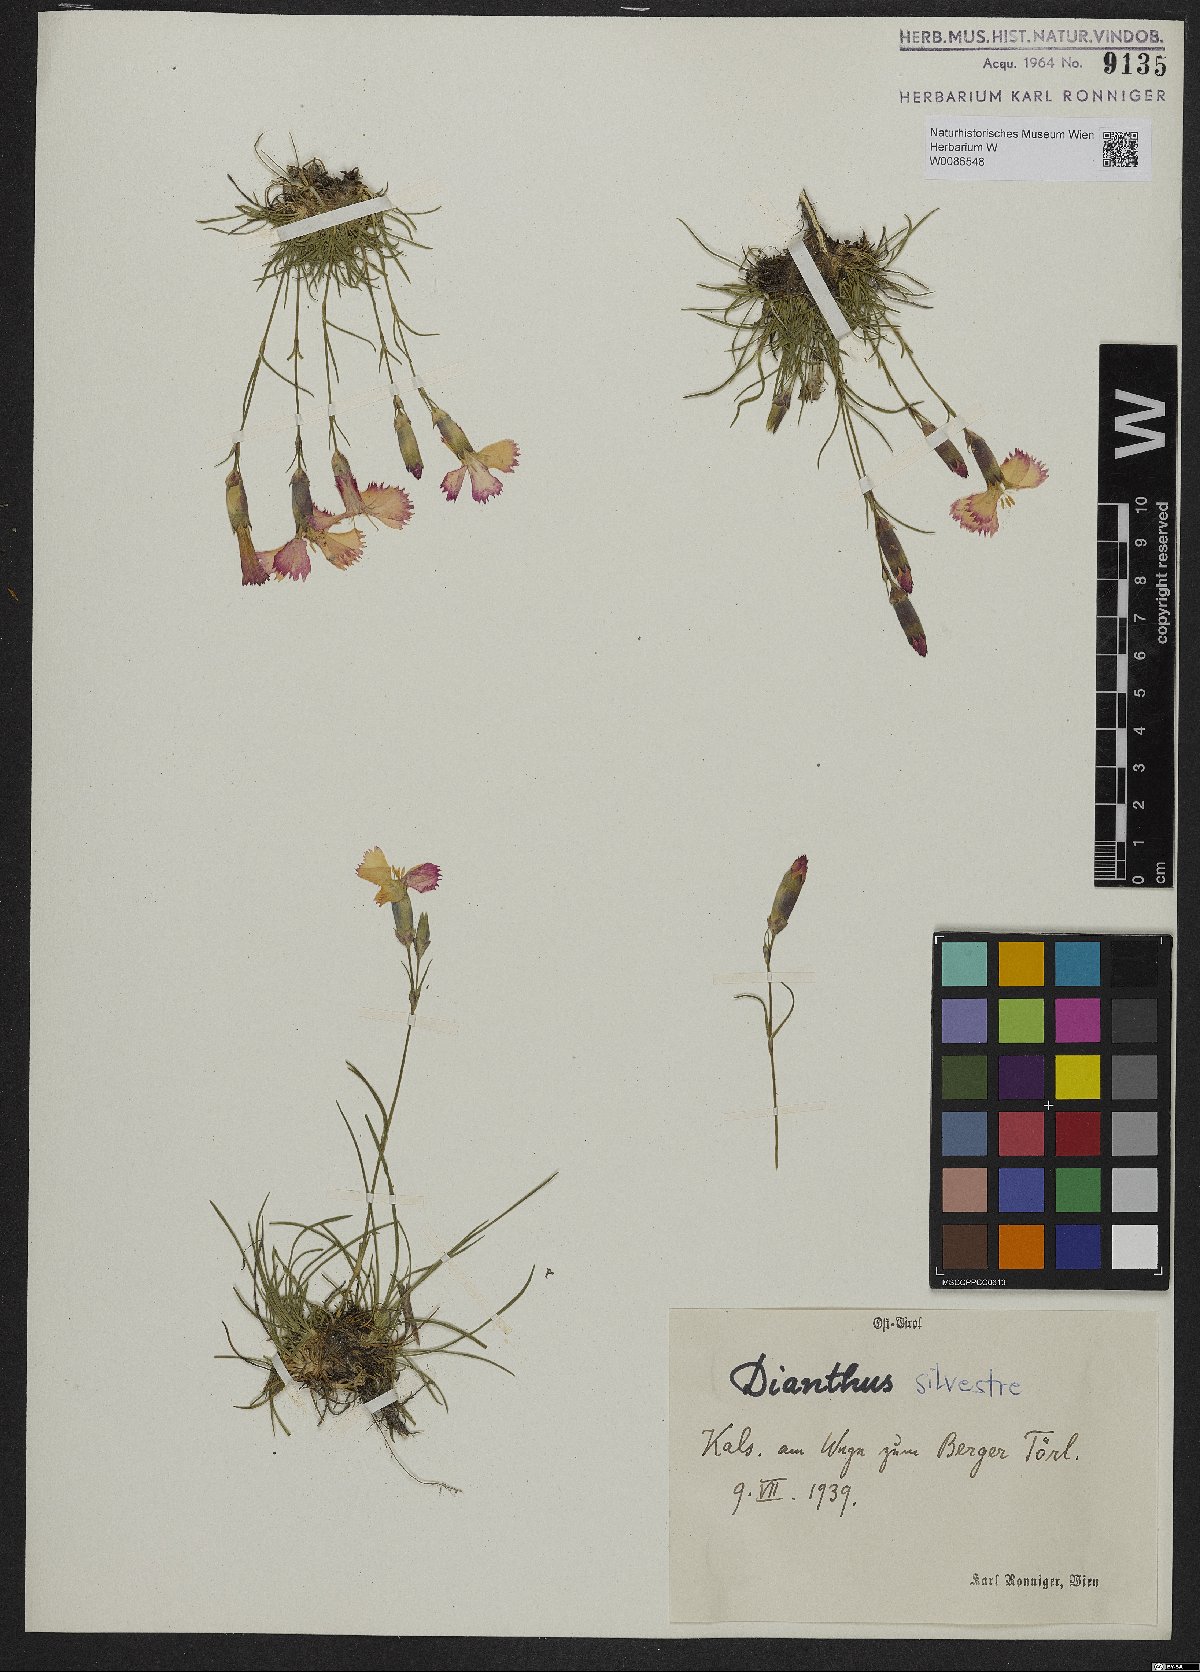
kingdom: Plantae
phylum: Tracheophyta
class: Magnoliopsida
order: Caryophyllales
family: Caryophyllaceae
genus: Dianthus
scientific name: Dianthus sylvestris
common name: Wood pink
